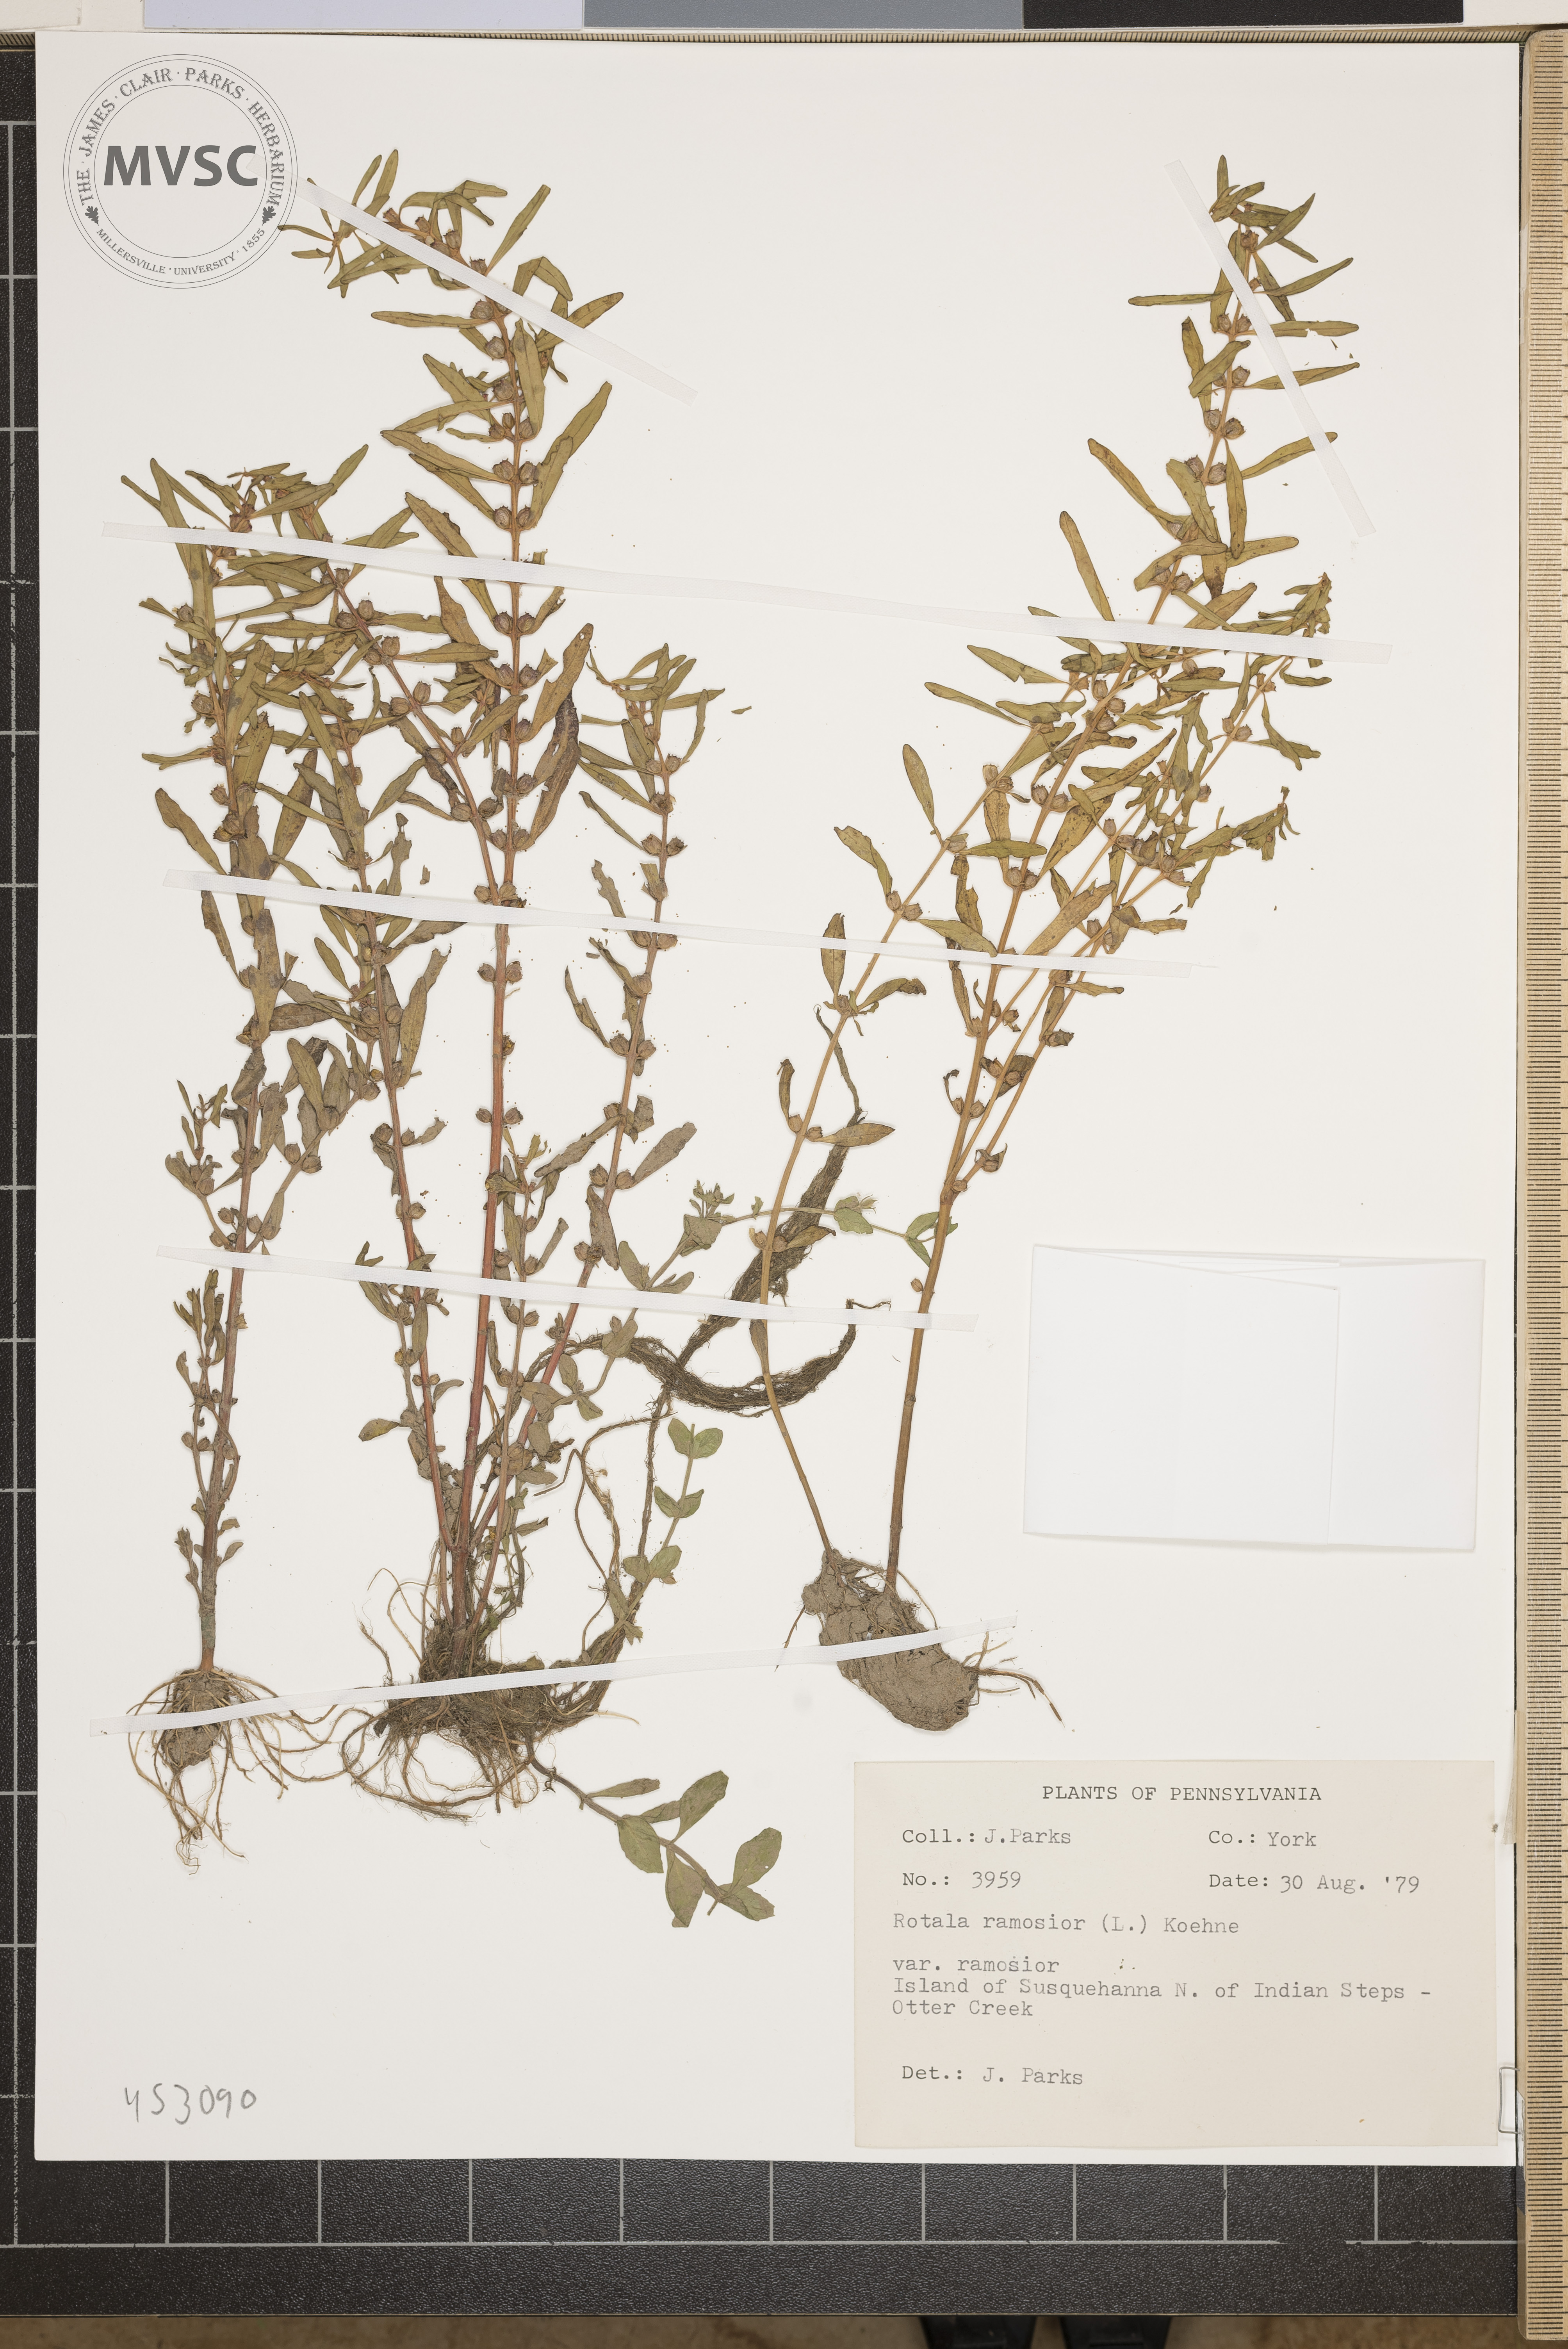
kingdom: Plantae
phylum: Tracheophyta
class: Magnoliopsida
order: Myrtales
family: Lythraceae
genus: Rotala
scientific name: Rotala ramosior
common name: Lowland rotala
